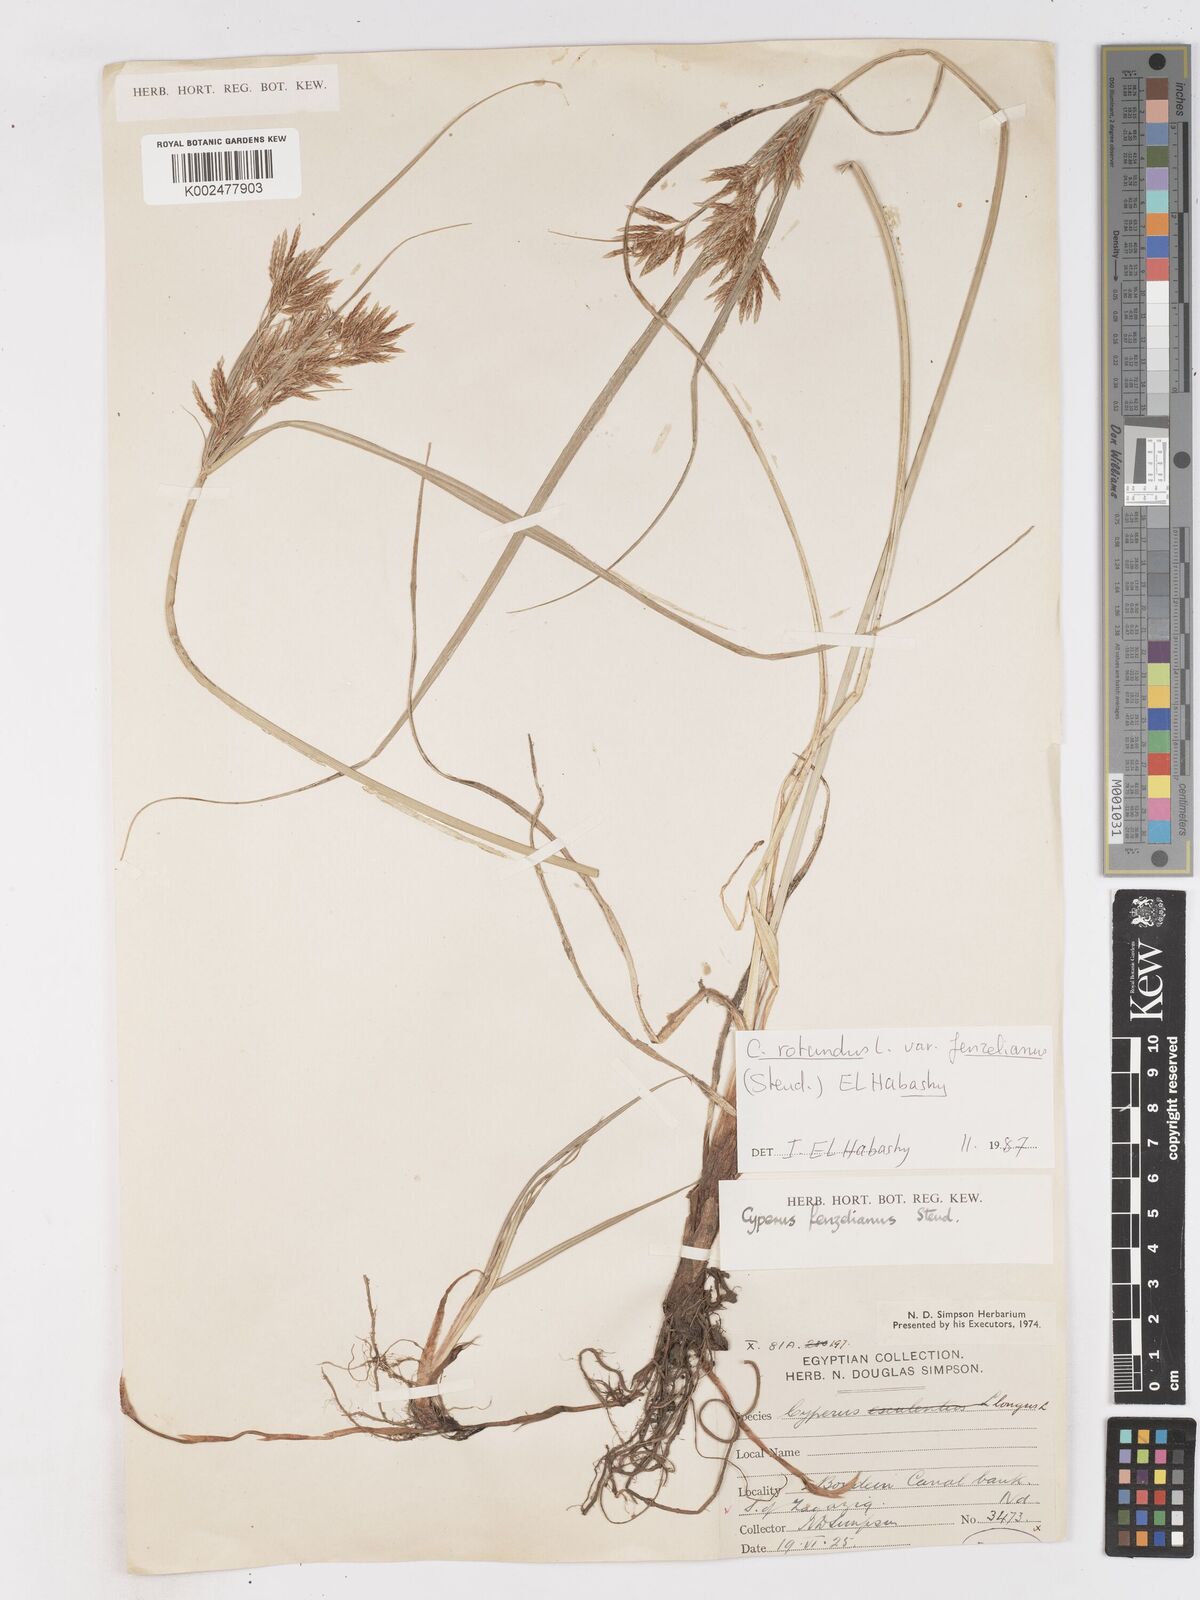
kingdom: Plantae
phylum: Tracheophyta
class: Liliopsida
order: Poales
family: Cyperaceae
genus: Cyperus
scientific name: Cyperus longus
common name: Galingale
